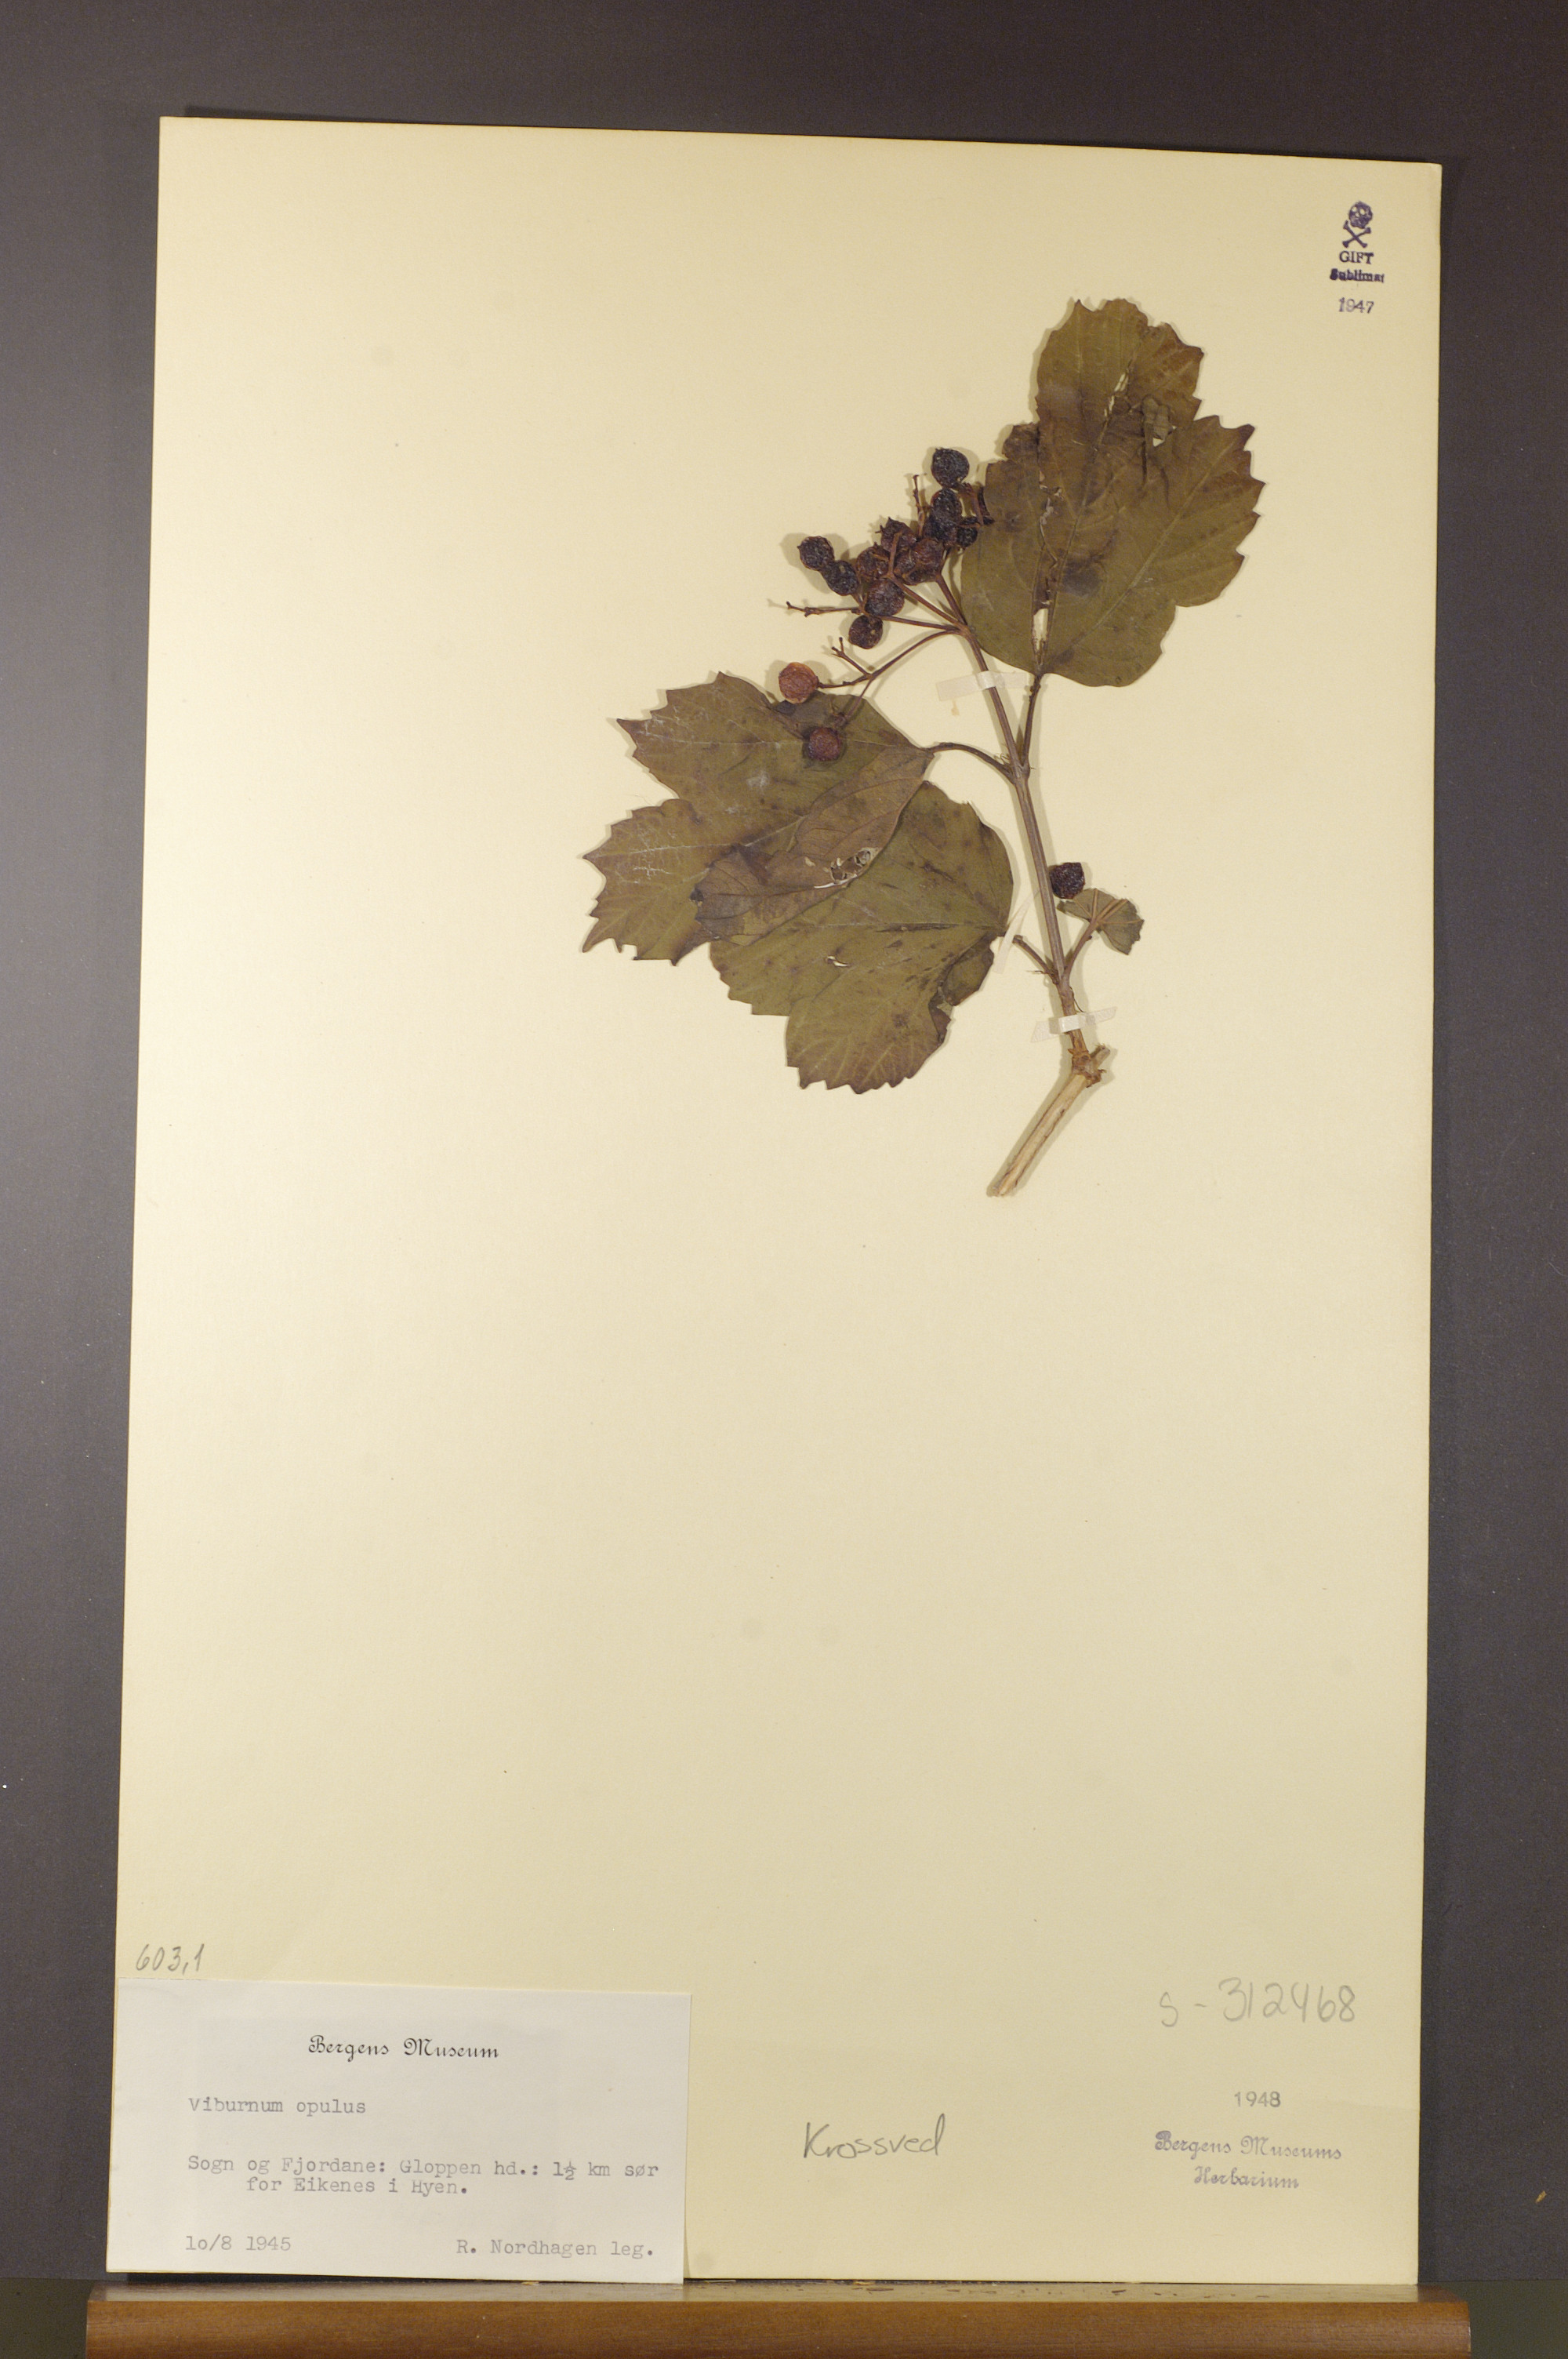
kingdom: Plantae
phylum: Tracheophyta
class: Magnoliopsida
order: Dipsacales
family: Viburnaceae
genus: Viburnum
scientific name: Viburnum opulus
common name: Guelder-rose
